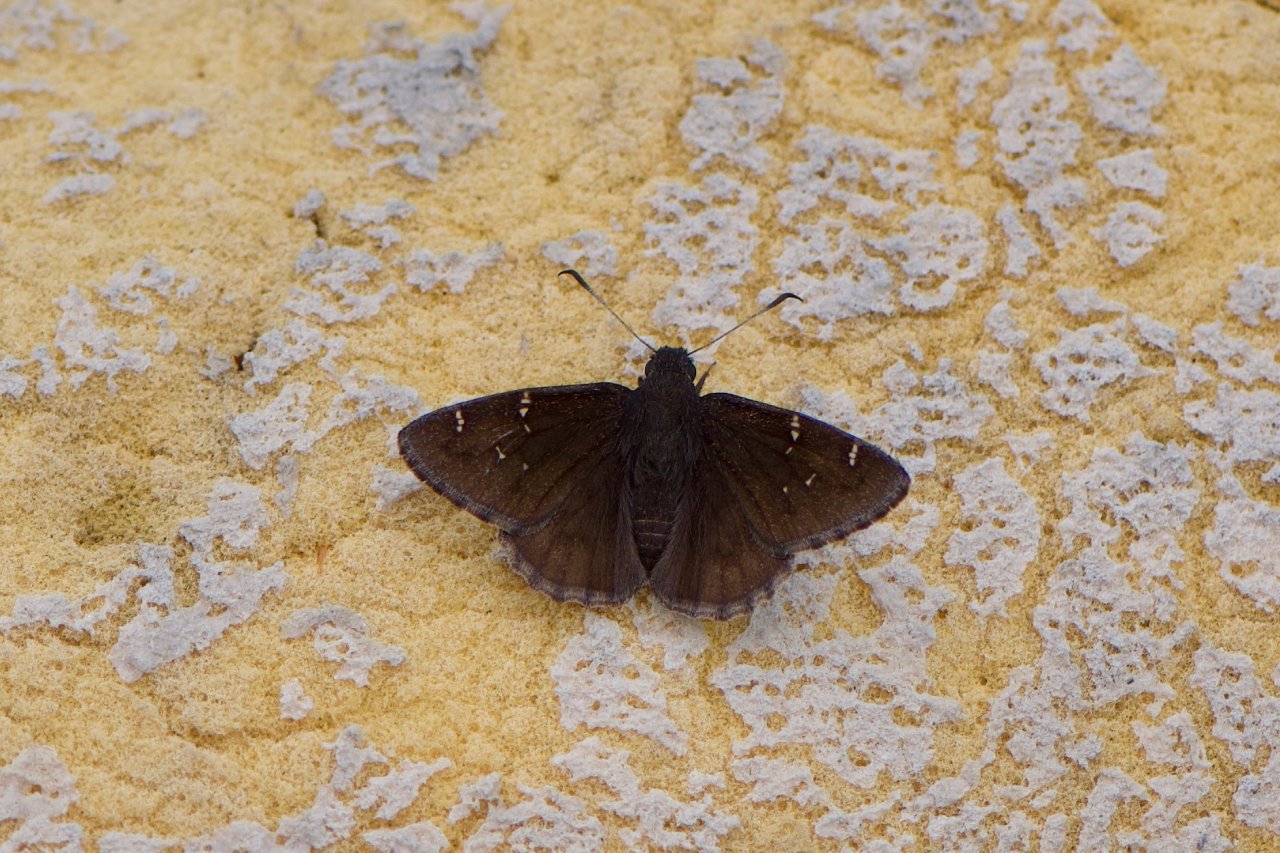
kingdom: Animalia
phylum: Arthropoda
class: Insecta
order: Lepidoptera
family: Hesperiidae
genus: Autochton
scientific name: Autochton
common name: Northern Cloudywing
